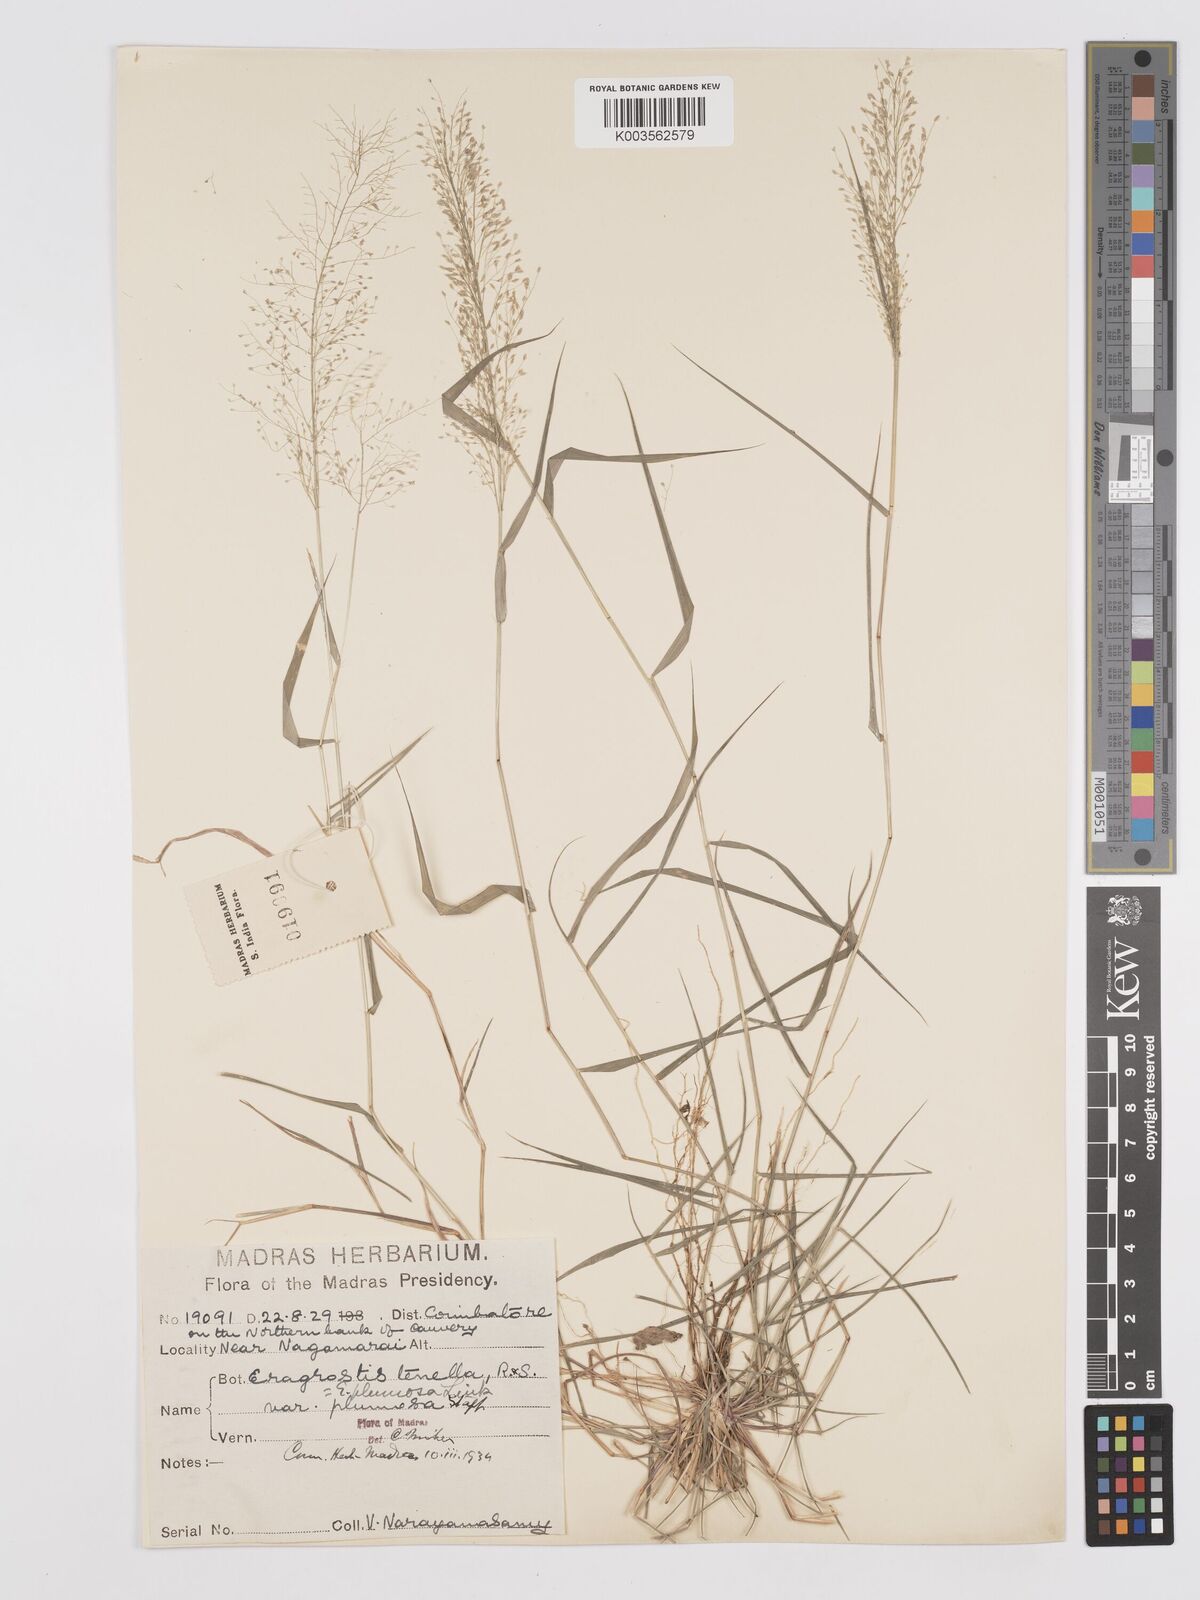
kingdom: Plantae
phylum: Tracheophyta
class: Liliopsida
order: Poales
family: Poaceae
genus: Eragrostis
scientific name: Eragrostis tenella
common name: Japanese lovegrass
